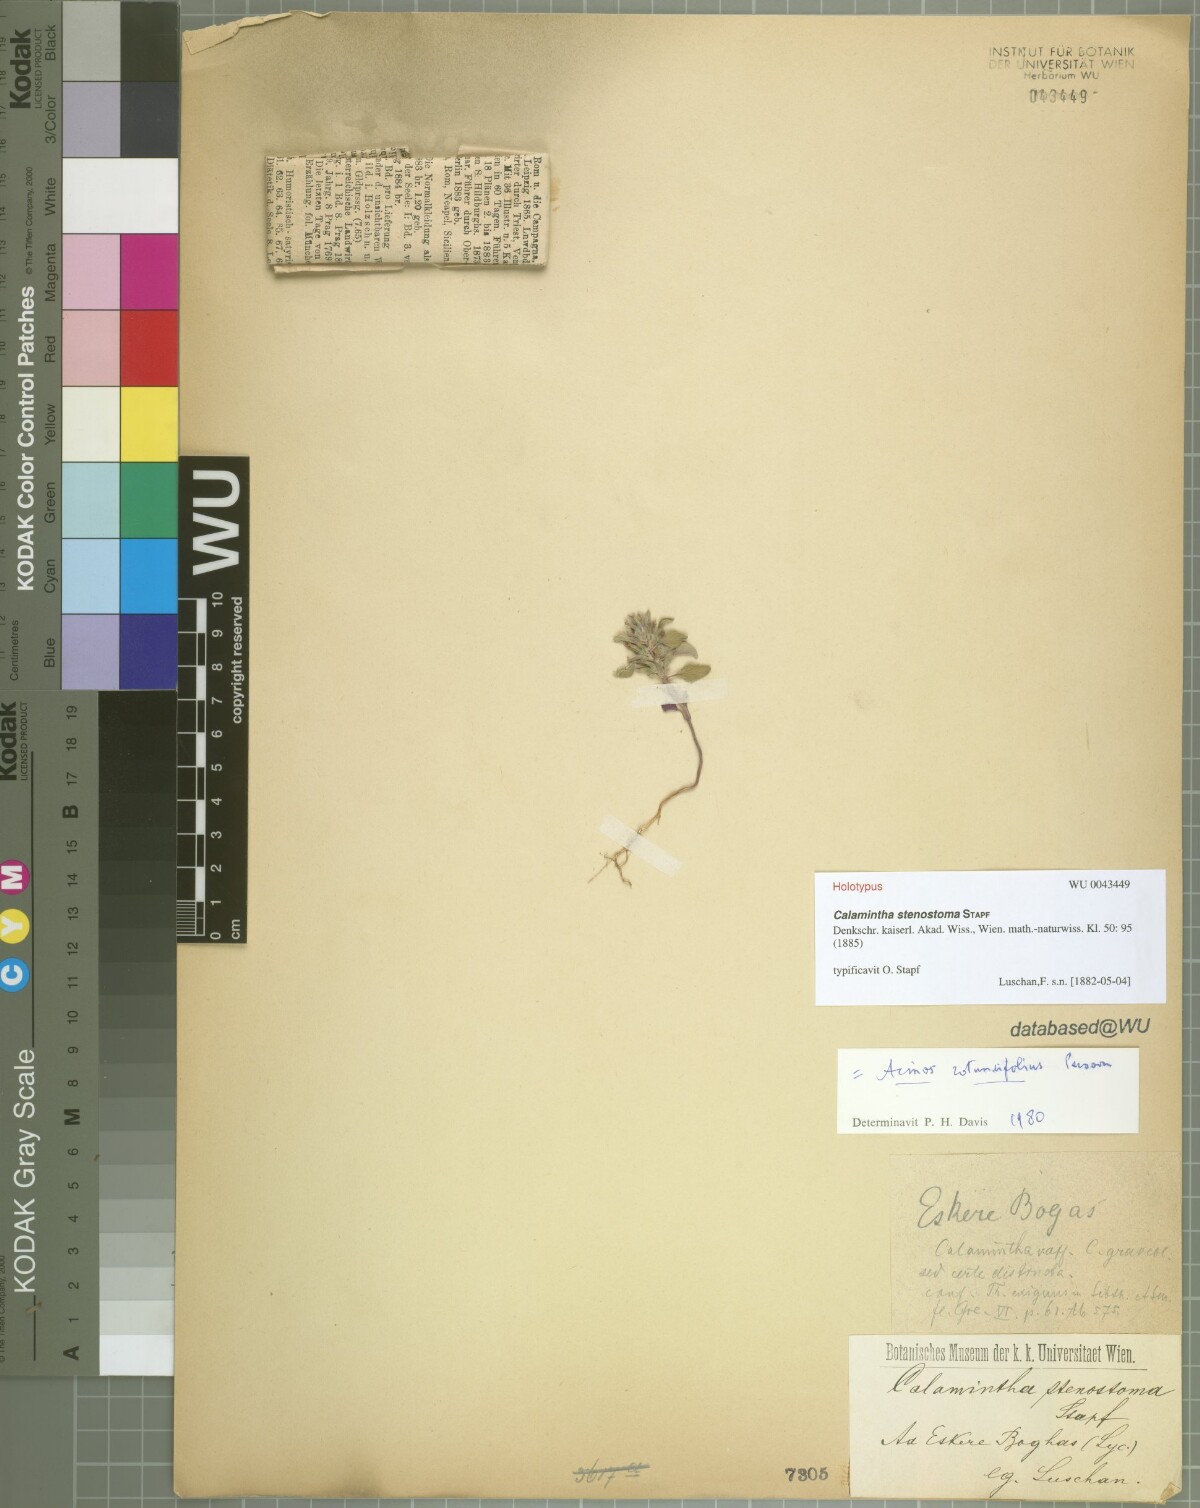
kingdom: Plantae
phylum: Tracheophyta
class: Magnoliopsida
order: Lamiales
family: Lamiaceae
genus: Clinopodium
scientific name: Clinopodium Calamintha stenostoma
